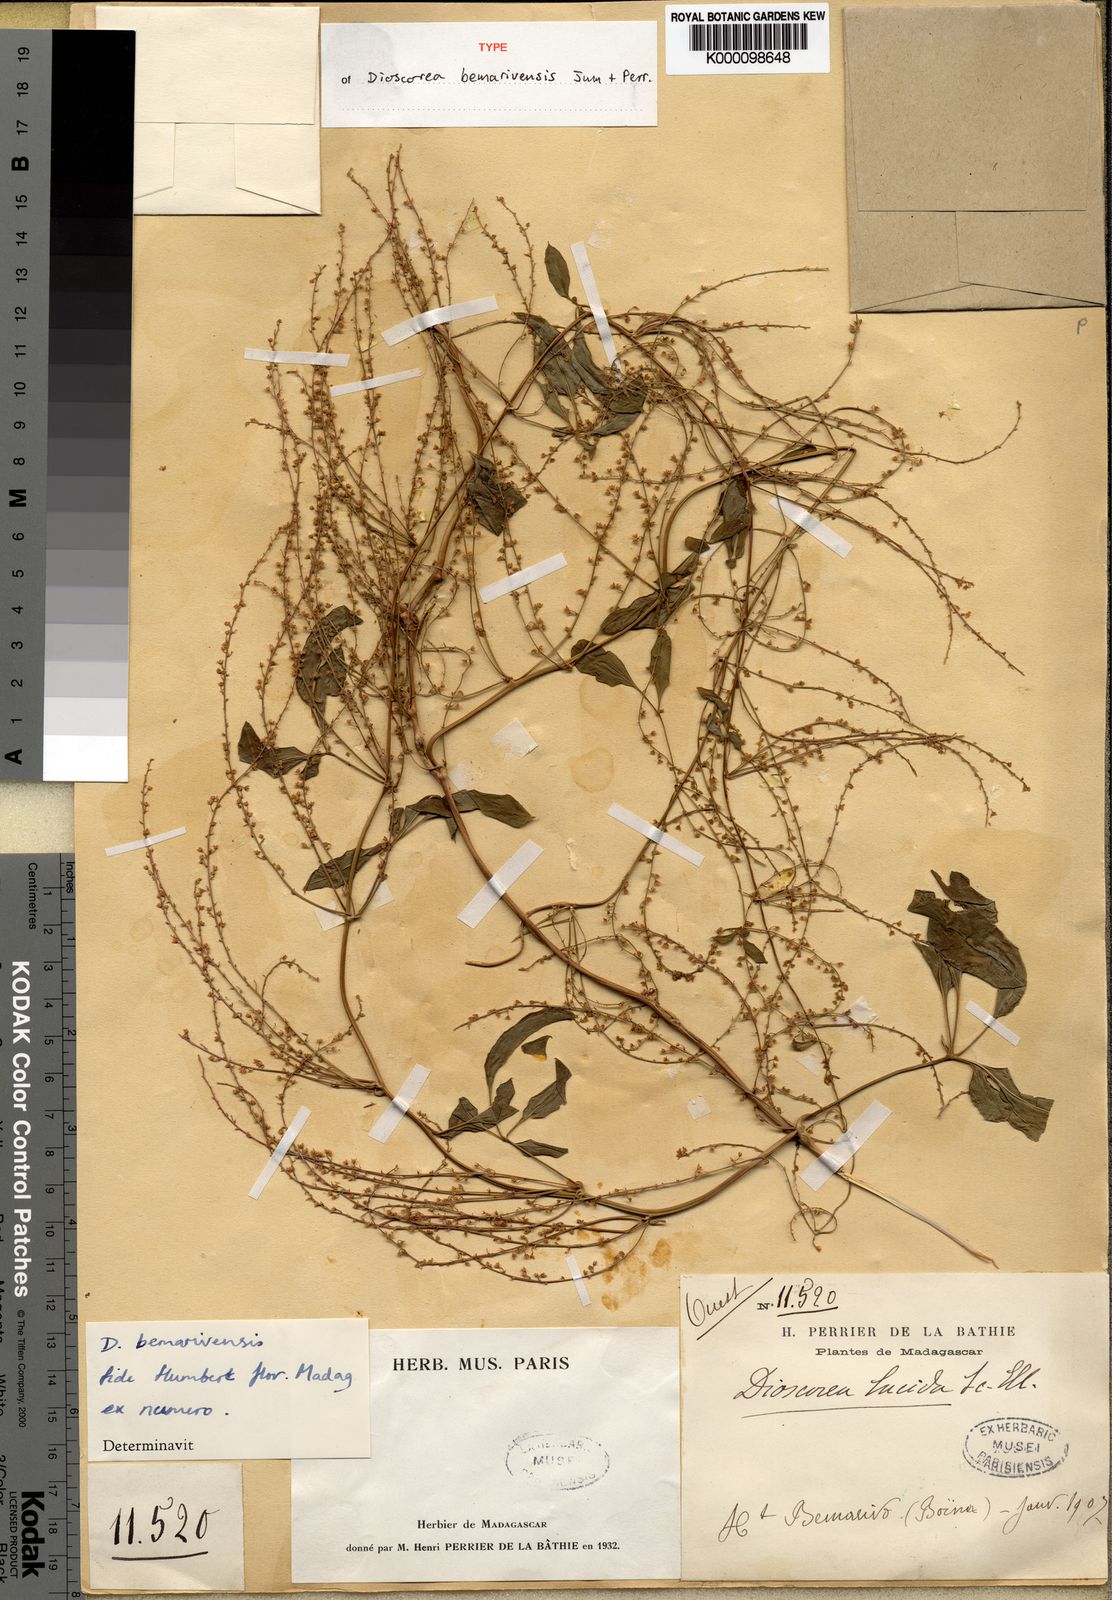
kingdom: Plantae
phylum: Tracheophyta
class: Liliopsida
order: Dioscoreales
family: Dioscoreaceae
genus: Dioscorea
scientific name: Dioscorea bemarivensis
